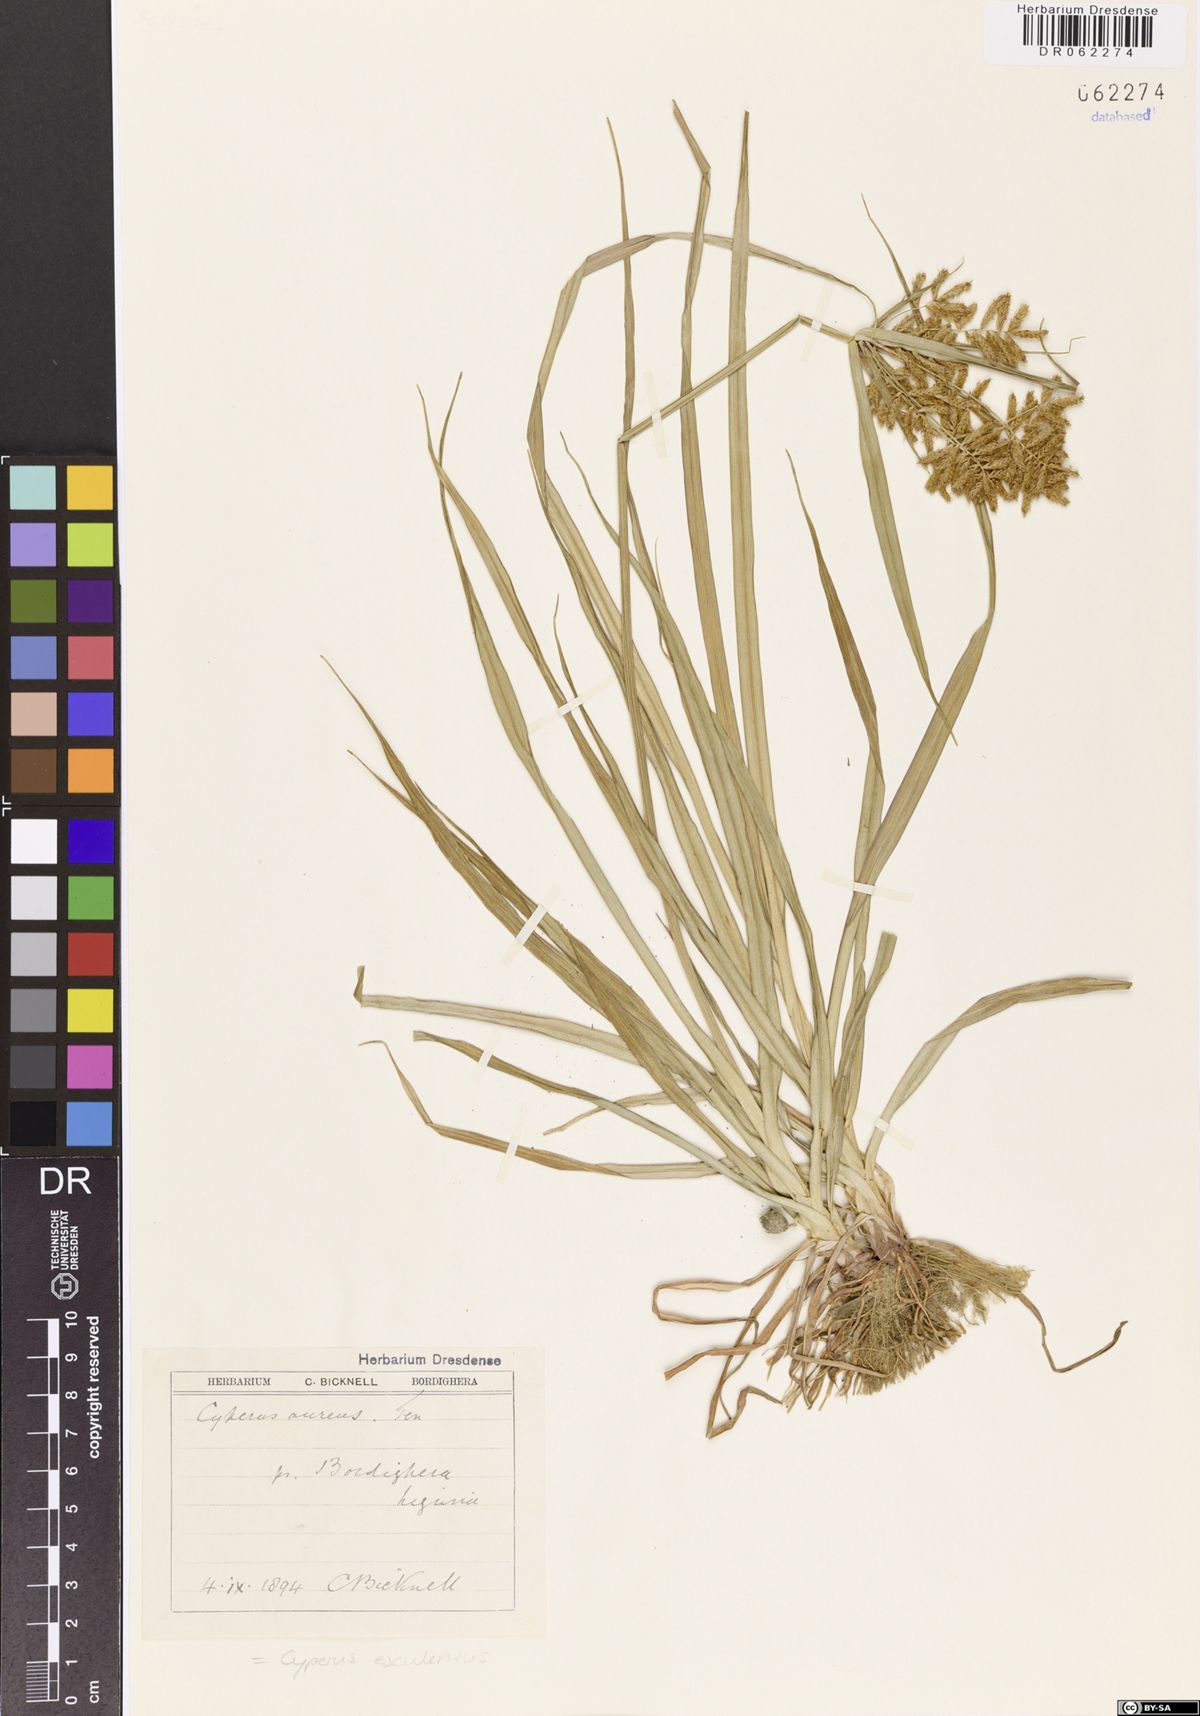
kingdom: Plantae
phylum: Tracheophyta
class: Liliopsida
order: Poales
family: Cyperaceae
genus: Cyperus
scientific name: Cyperus esculentus
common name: Yellow nutsedge
